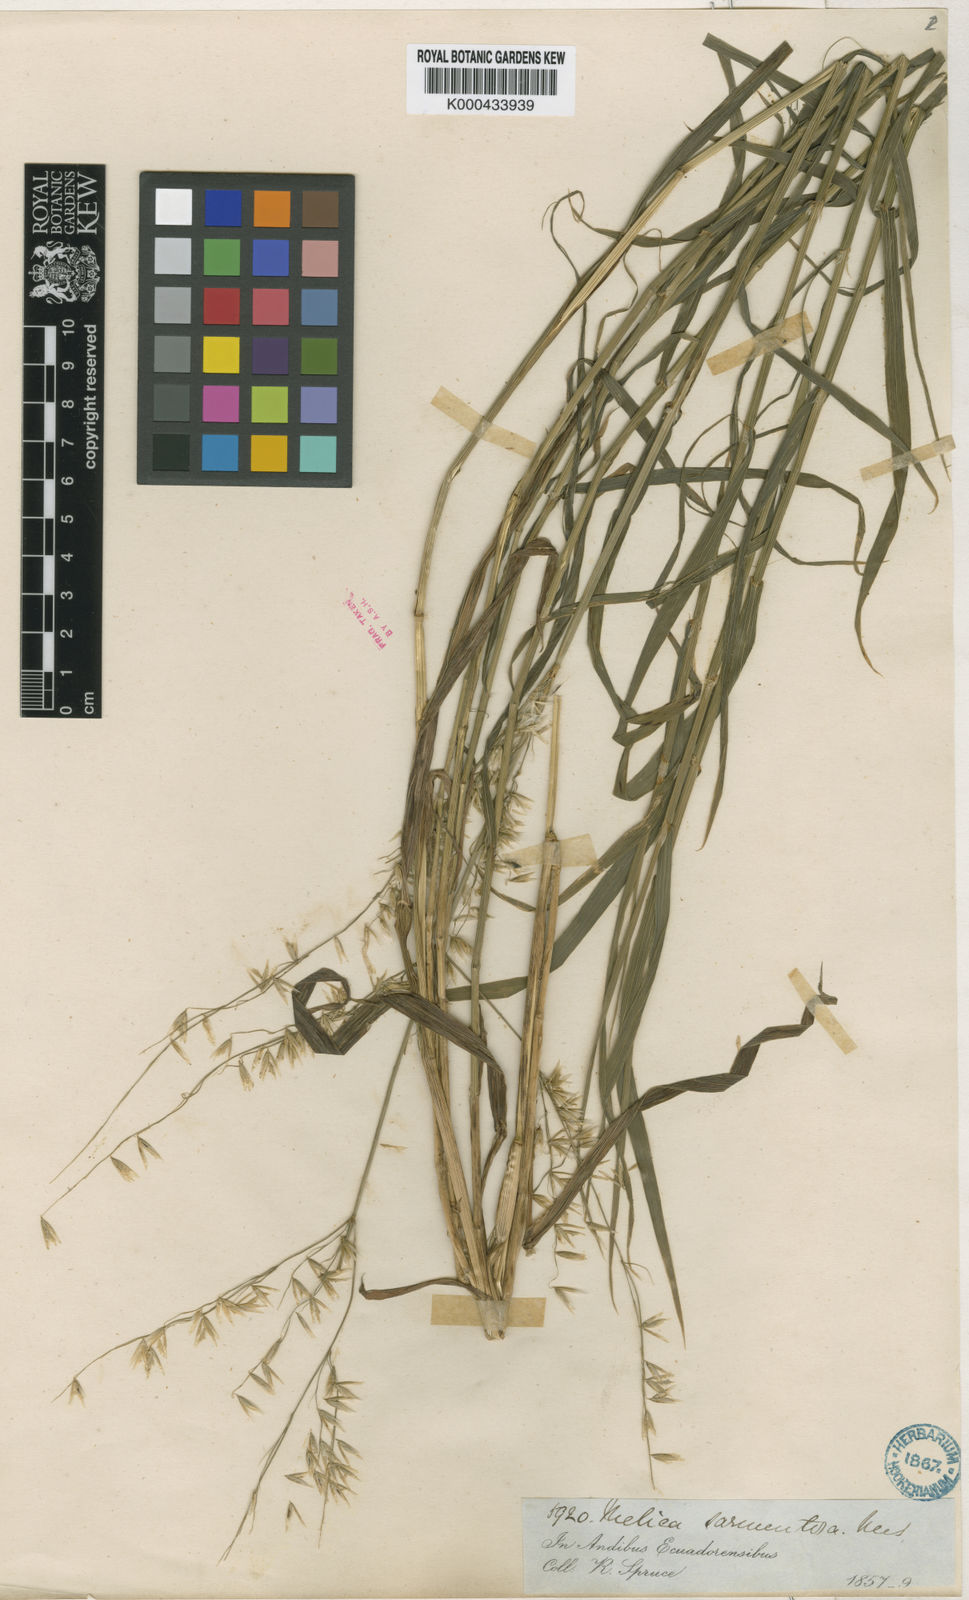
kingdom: Plantae
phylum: Tracheophyta
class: Liliopsida
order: Poales
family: Poaceae
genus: Melica
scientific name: Melica
